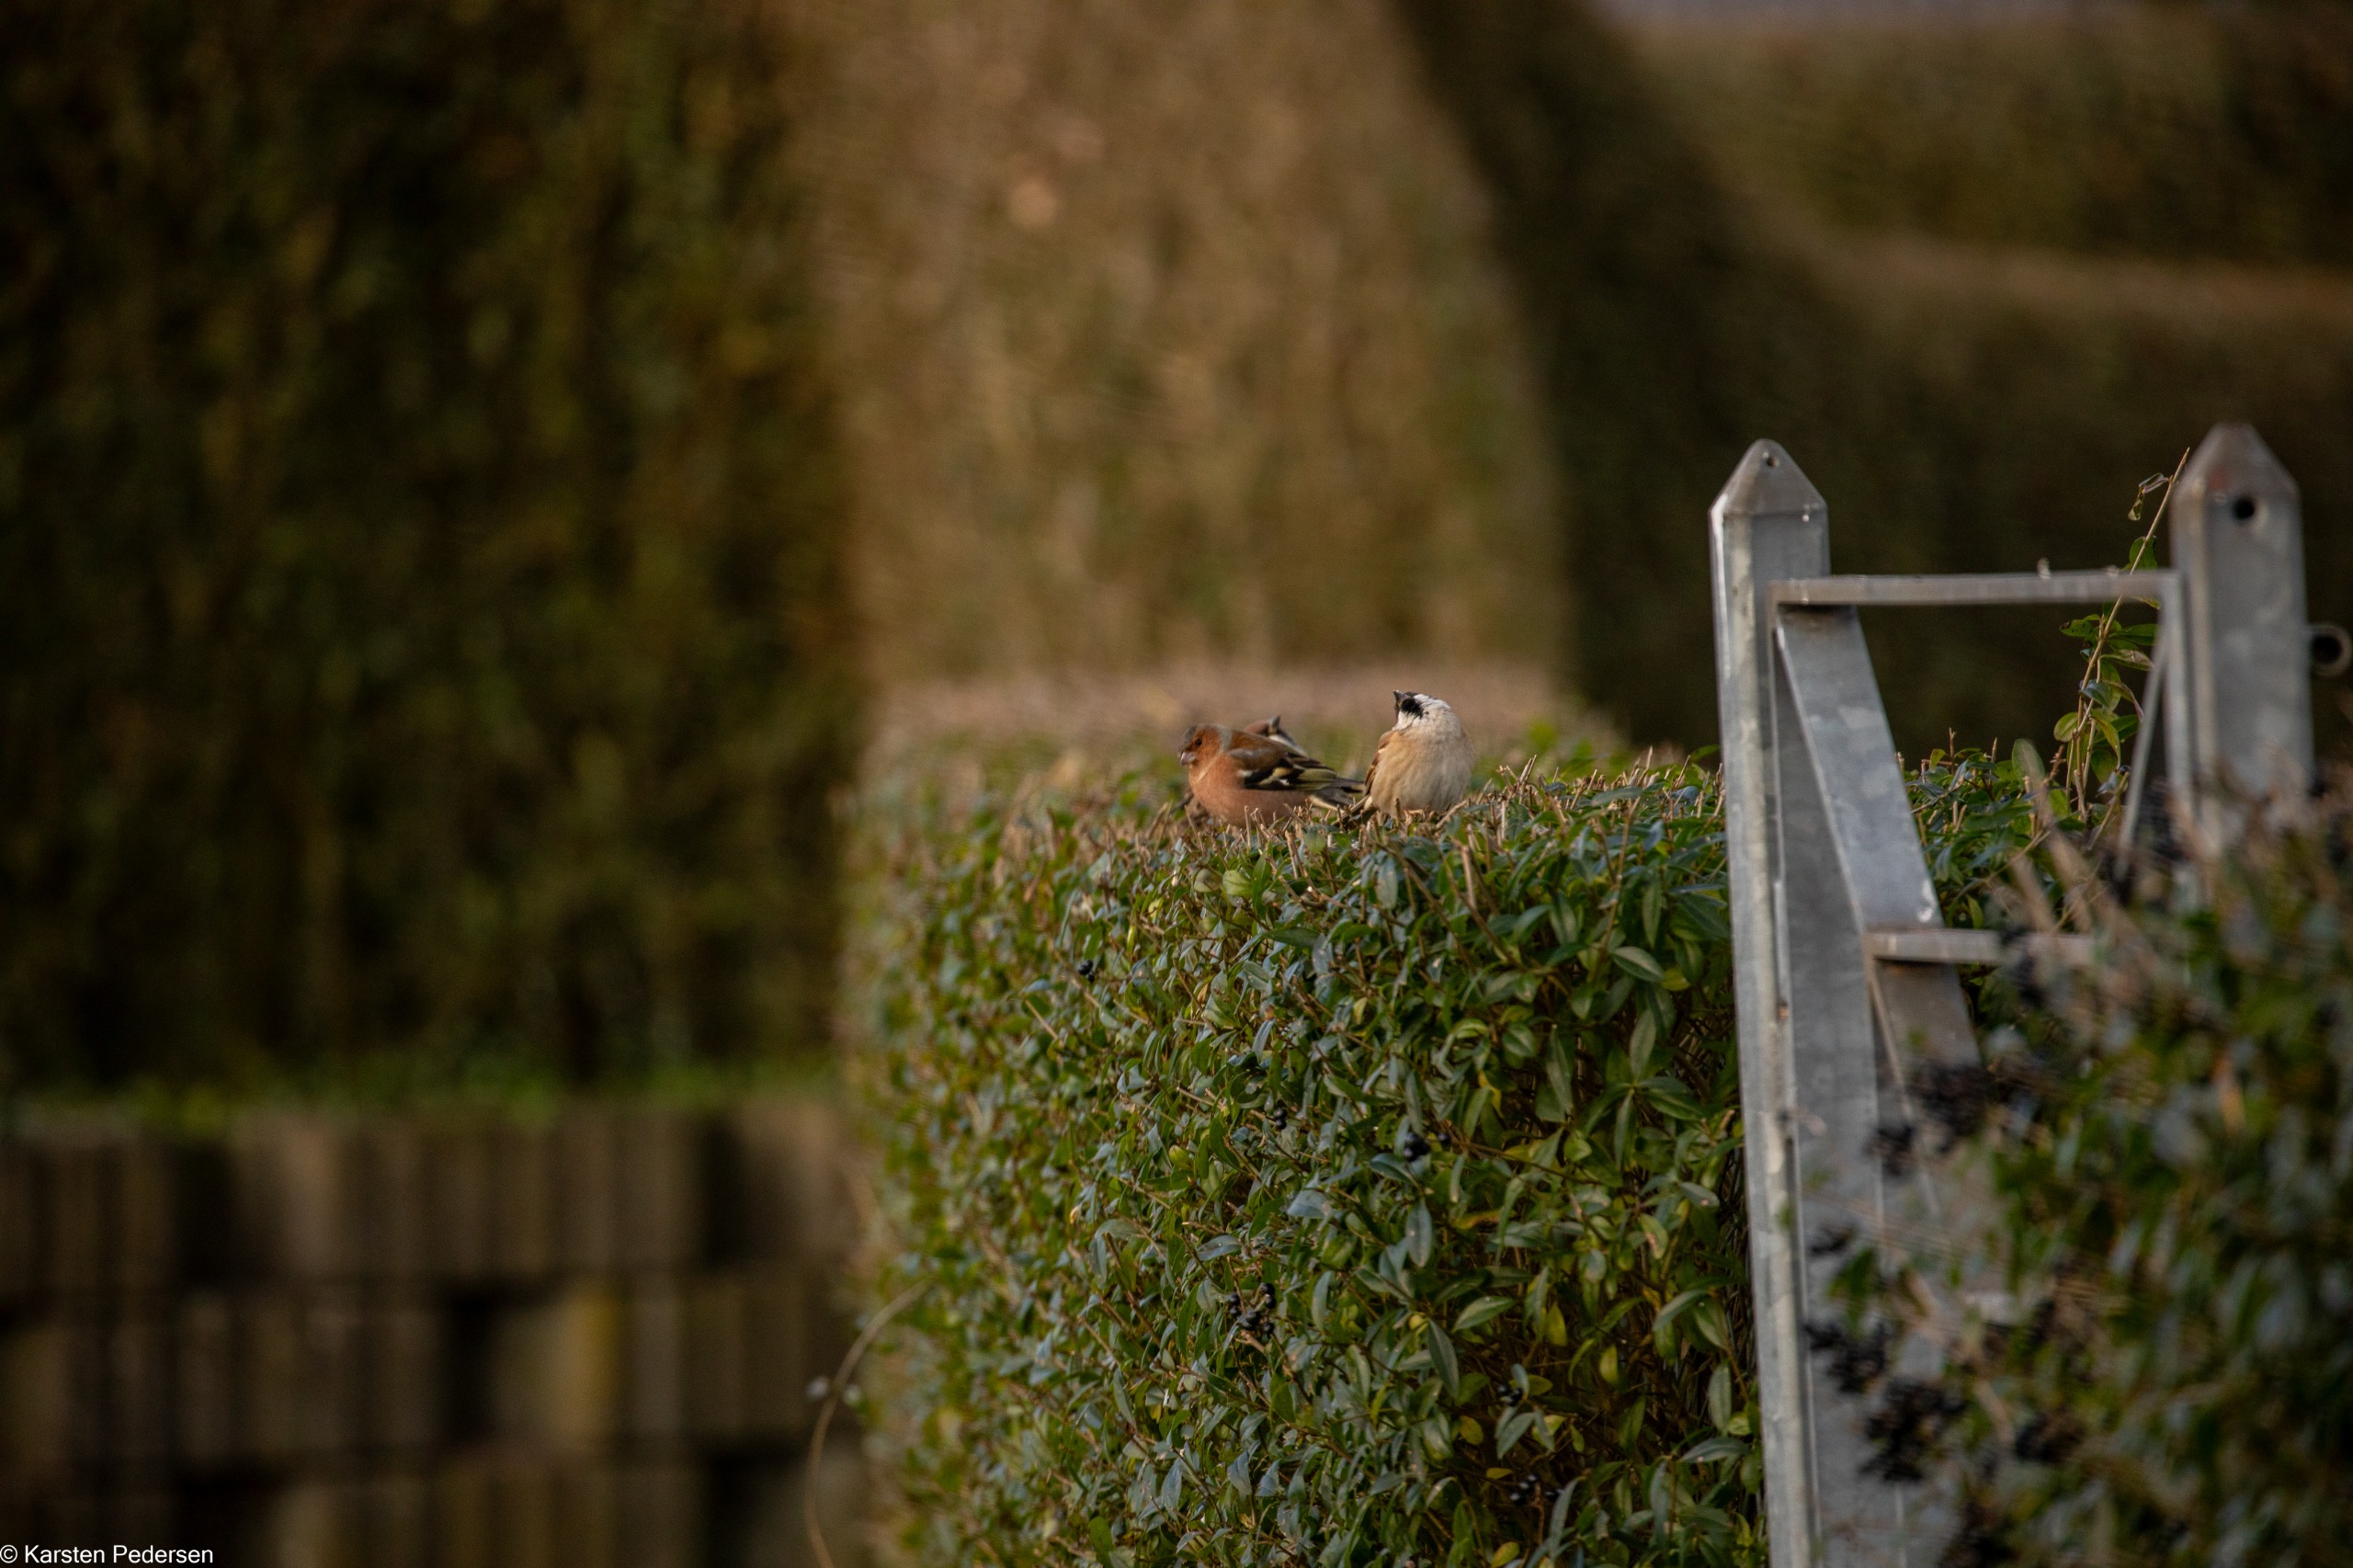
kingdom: Animalia
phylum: Chordata
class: Aves
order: Passeriformes
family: Fringillidae
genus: Fringilla
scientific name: Fringilla coelebs
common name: Bogfinke
